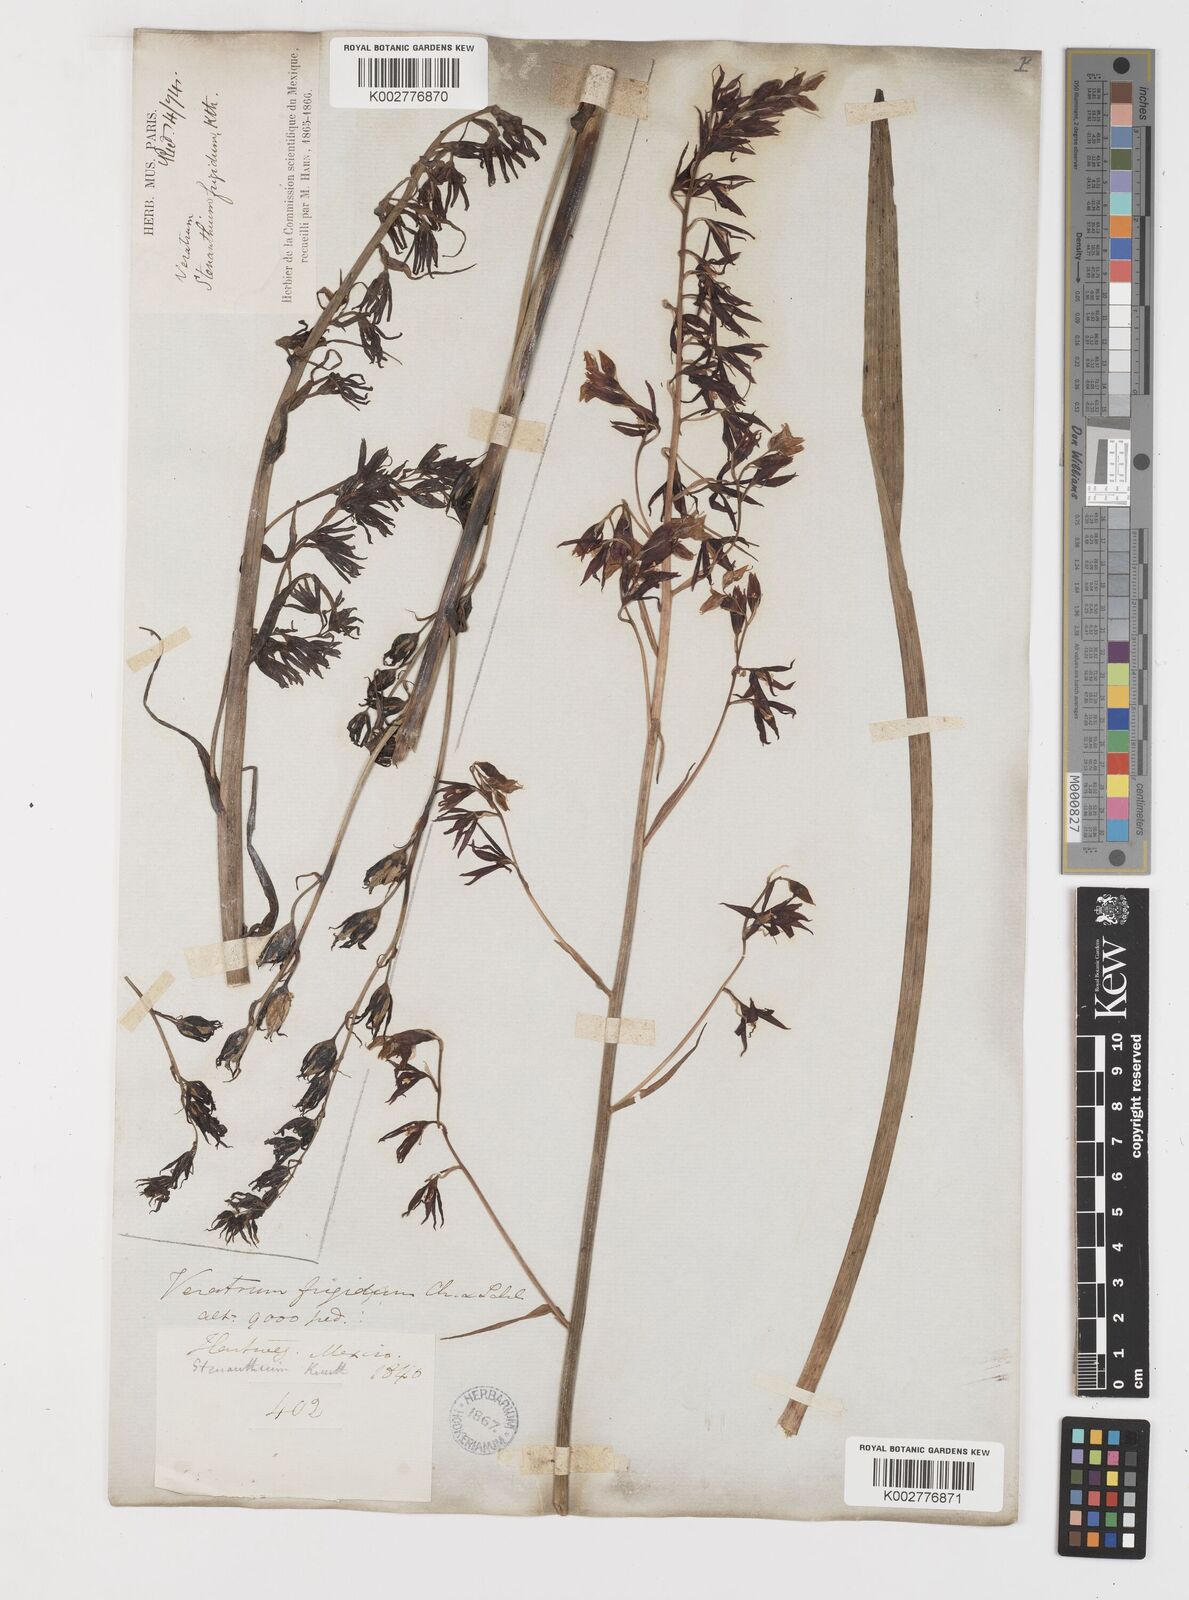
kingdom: Plantae
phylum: Tracheophyta
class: Liliopsida
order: Liliales
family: Melanthiaceae
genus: Anticlea
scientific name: Anticlea frigida
